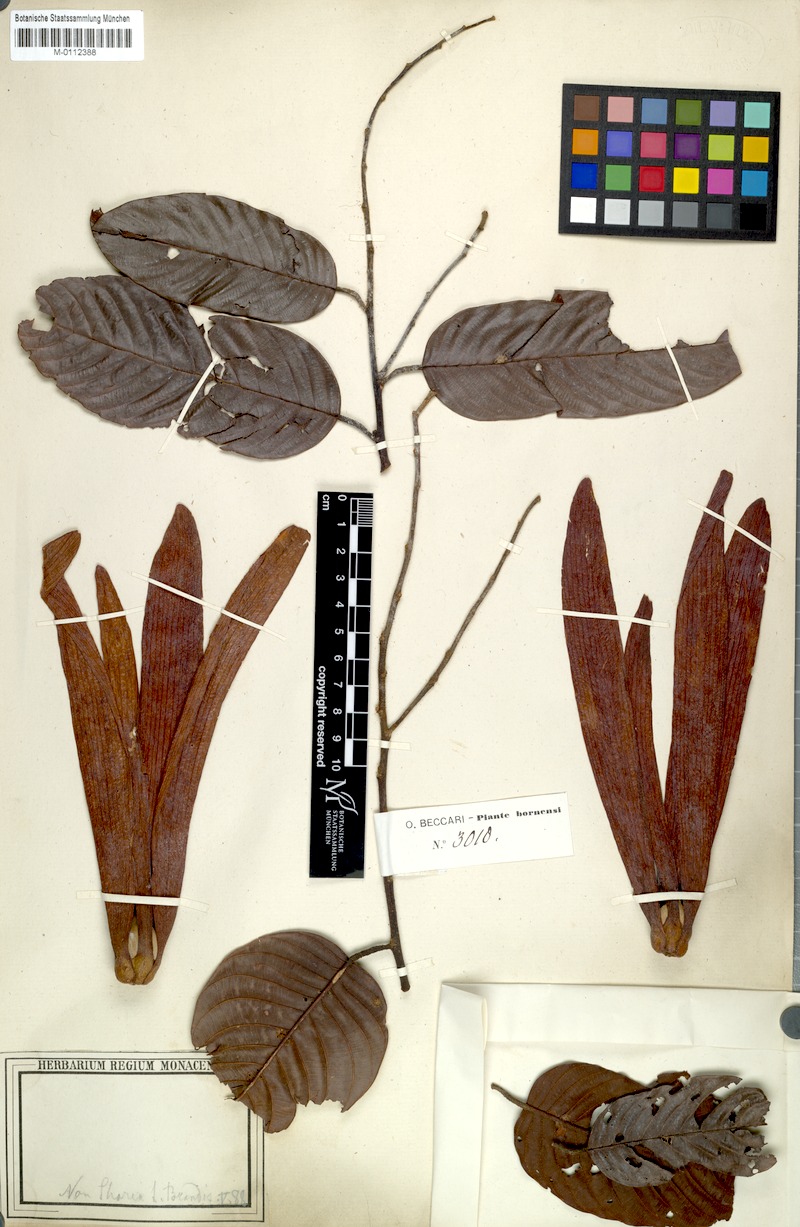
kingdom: Plantae
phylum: Tracheophyta
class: Magnoliopsida
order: Malvales
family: Dipterocarpaceae
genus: Shorea
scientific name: Shorea
